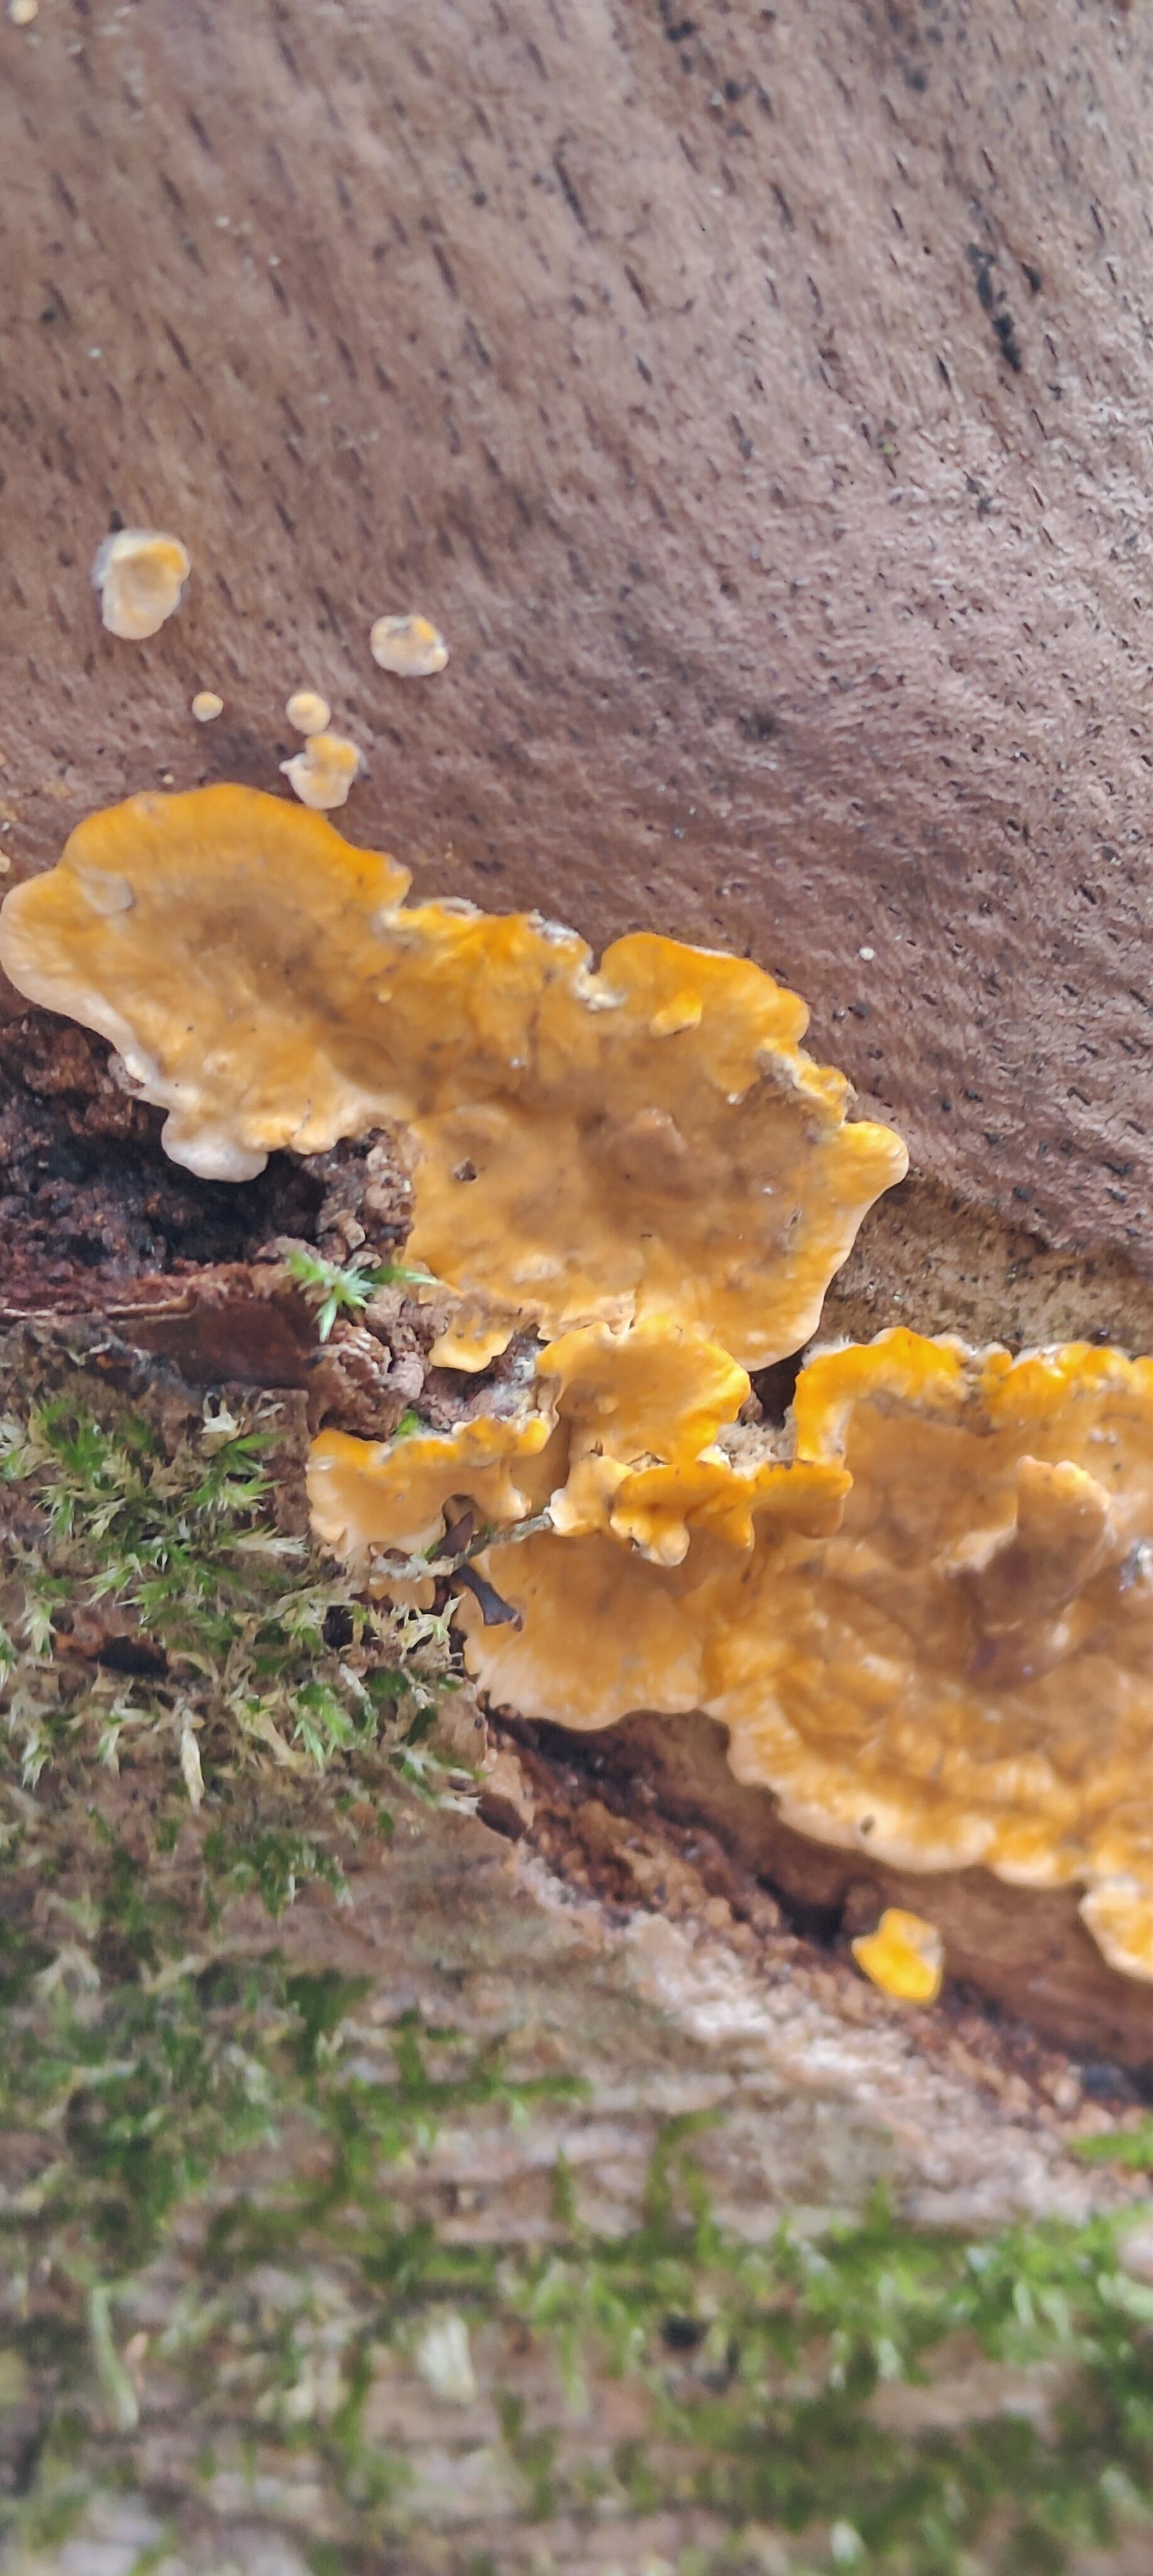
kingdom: Fungi
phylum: Basidiomycota
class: Agaricomycetes
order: Russulales
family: Stereaceae
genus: Stereum
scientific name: Stereum hirsutum
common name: håret lædersvamp
